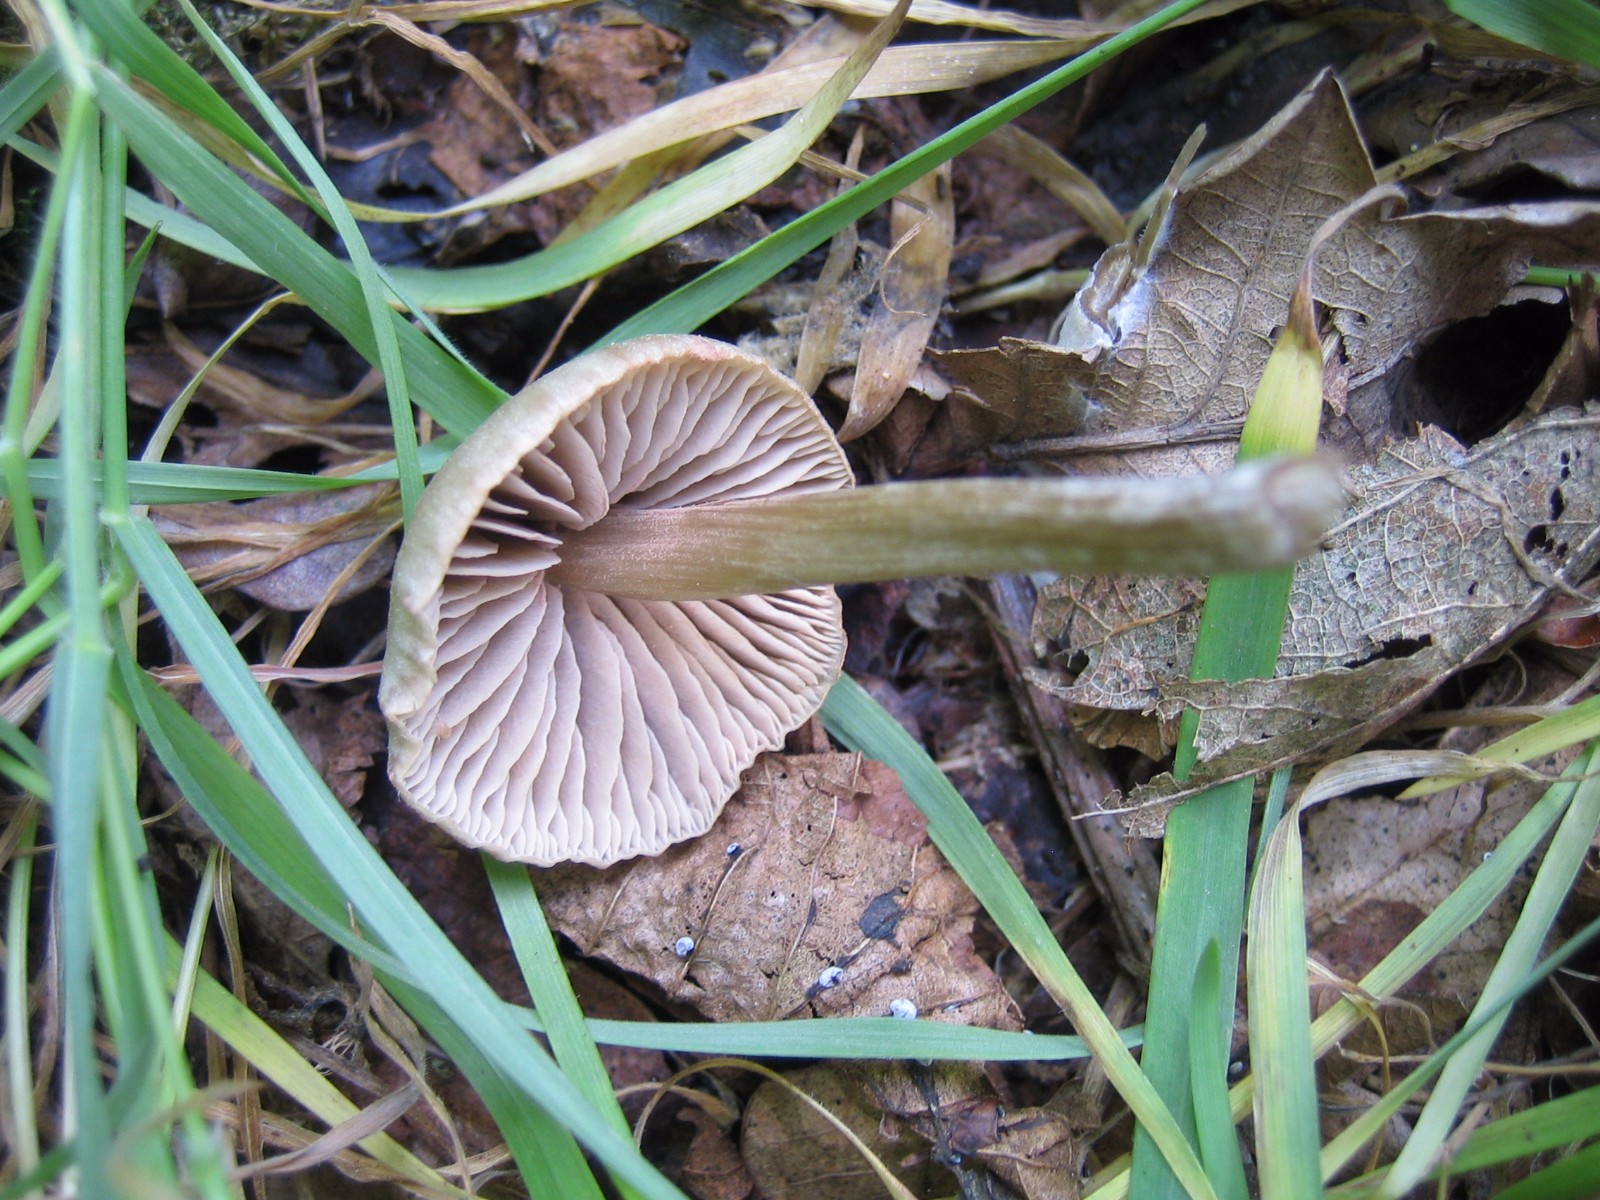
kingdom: Fungi
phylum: Basidiomycota
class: Agaricomycetes
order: Agaricales
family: Entolomataceae
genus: Entoloma
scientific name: Entoloma
